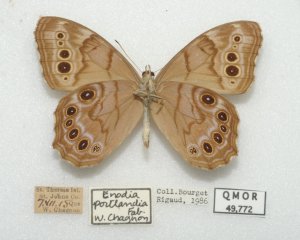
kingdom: Animalia
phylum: Arthropoda
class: Insecta
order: Lepidoptera
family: Nymphalidae
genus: Lethe
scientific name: Lethe anthedon
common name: Northern Pearly-Eye
